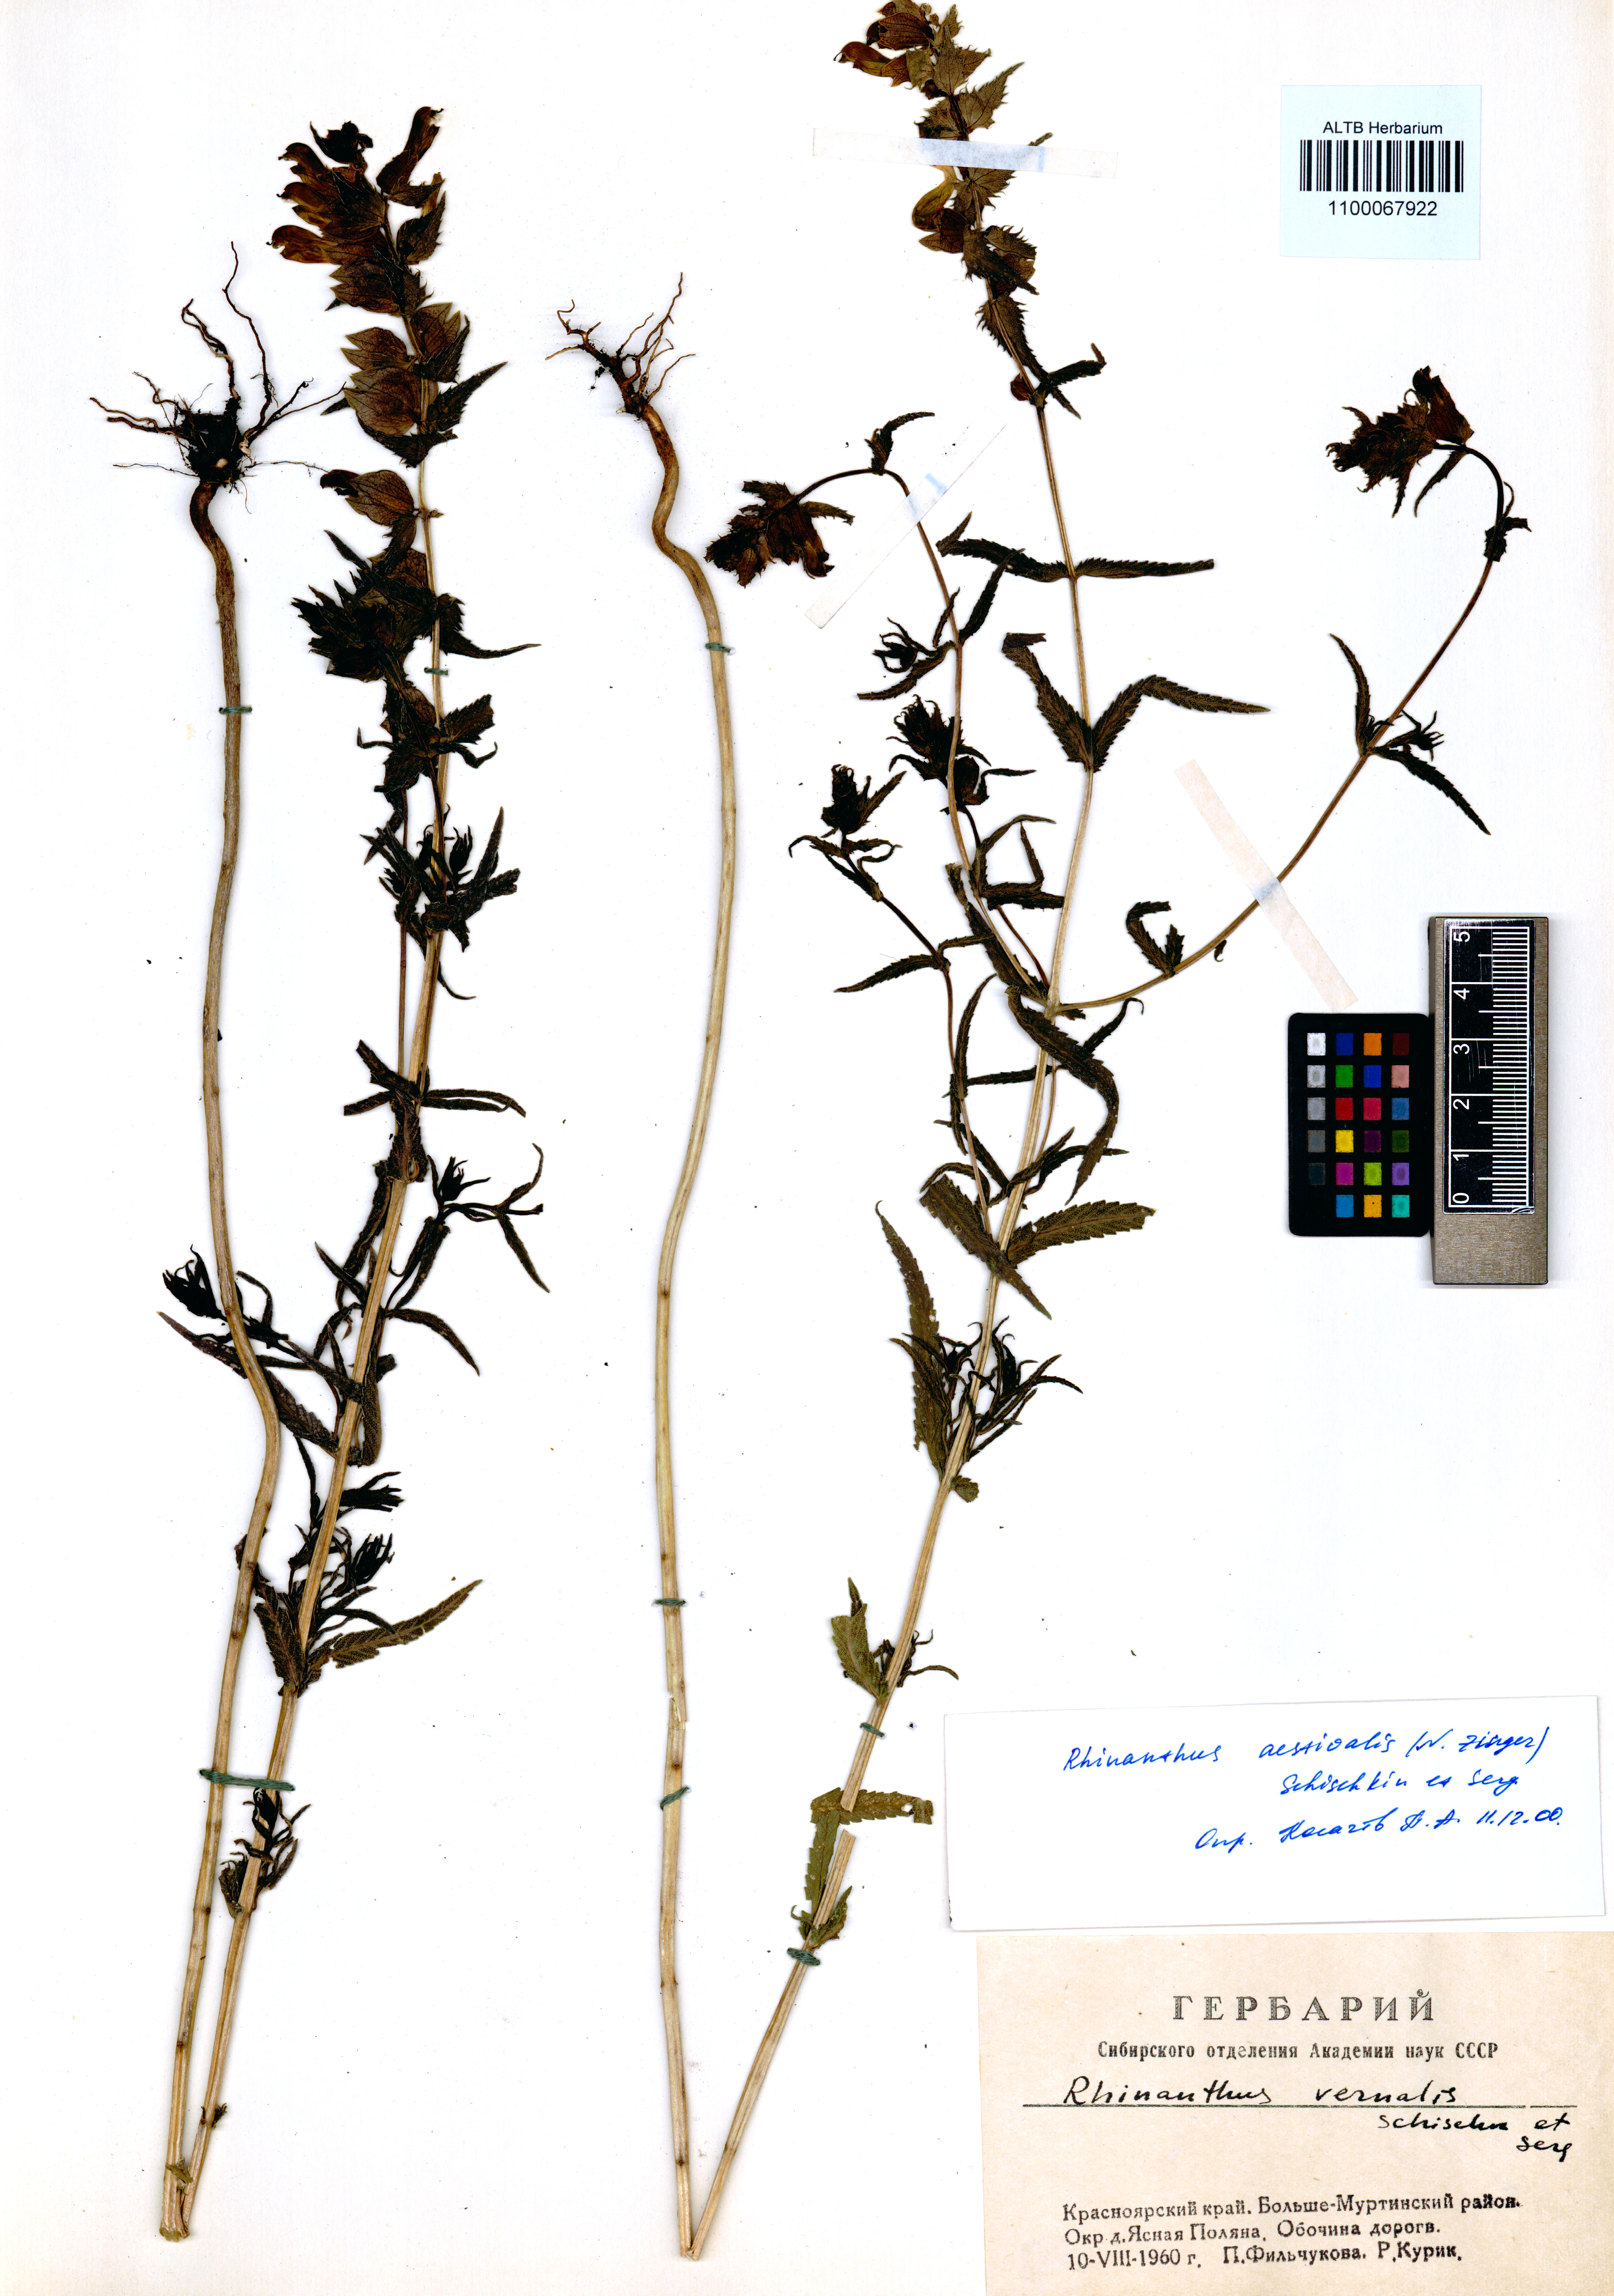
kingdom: Plantae
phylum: Tracheophyta
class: Magnoliopsida
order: Lamiales
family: Orobanchaceae
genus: Rhinanthus
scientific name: Rhinanthus serotinus
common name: Late-flowering yellow rattle
